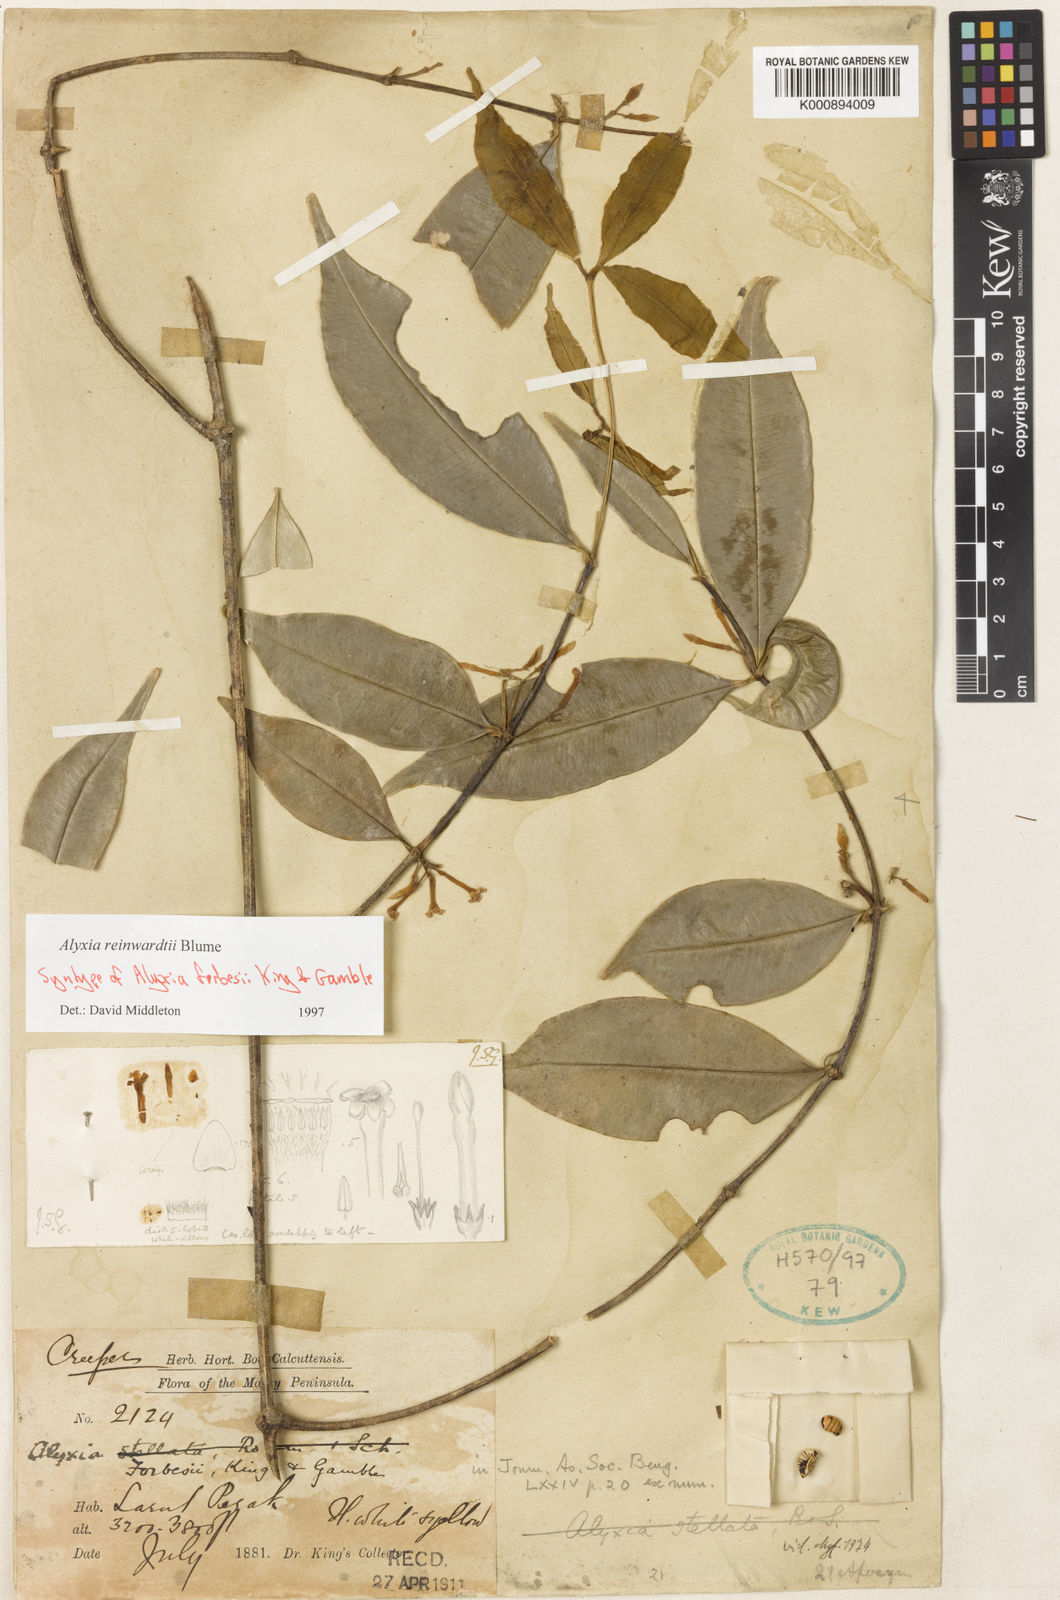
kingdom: Plantae
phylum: Tracheophyta
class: Magnoliopsida
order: Gentianales
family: Apocynaceae
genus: Alyxia
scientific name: Alyxia reinwardtii
